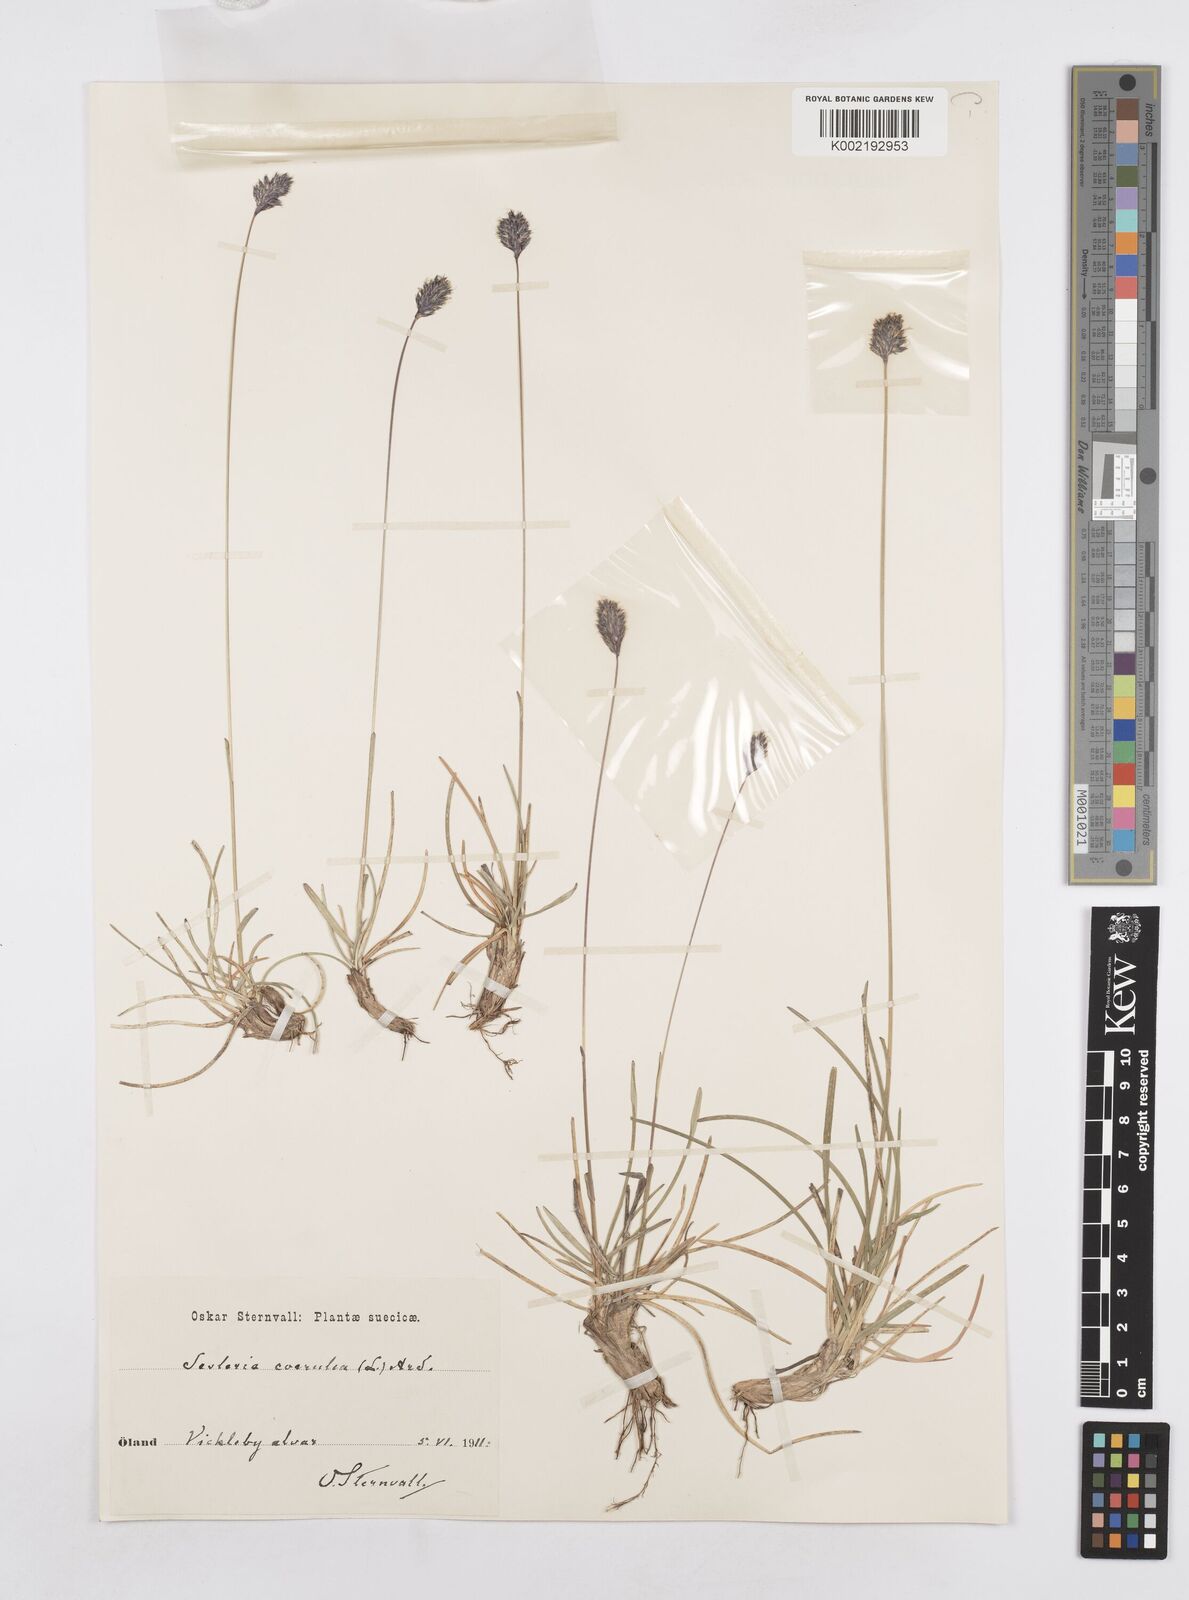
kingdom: Plantae
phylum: Tracheophyta
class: Liliopsida
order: Poales
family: Poaceae
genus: Sesleria
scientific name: Sesleria caerulea
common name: Blue moor-grass
